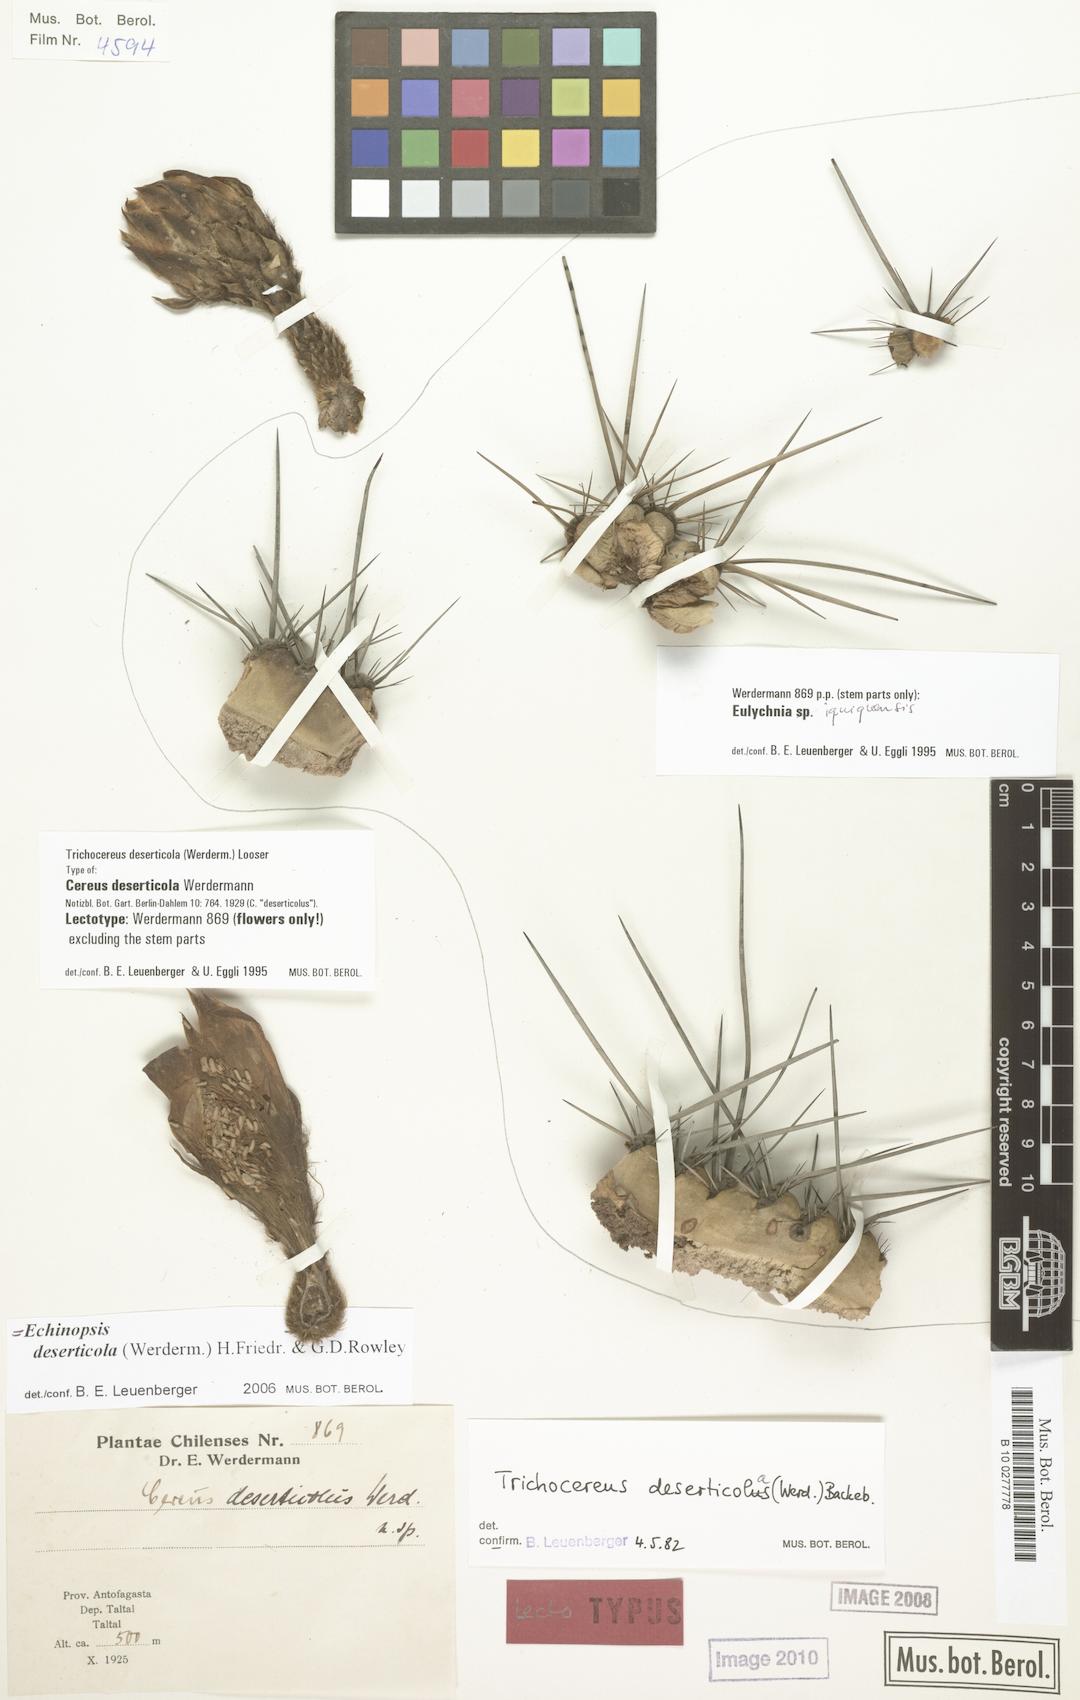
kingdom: Plantae
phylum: Tracheophyta
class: Magnoliopsida
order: Caryophyllales
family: Cactaceae
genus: Leucostele
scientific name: Leucostele deserticola
